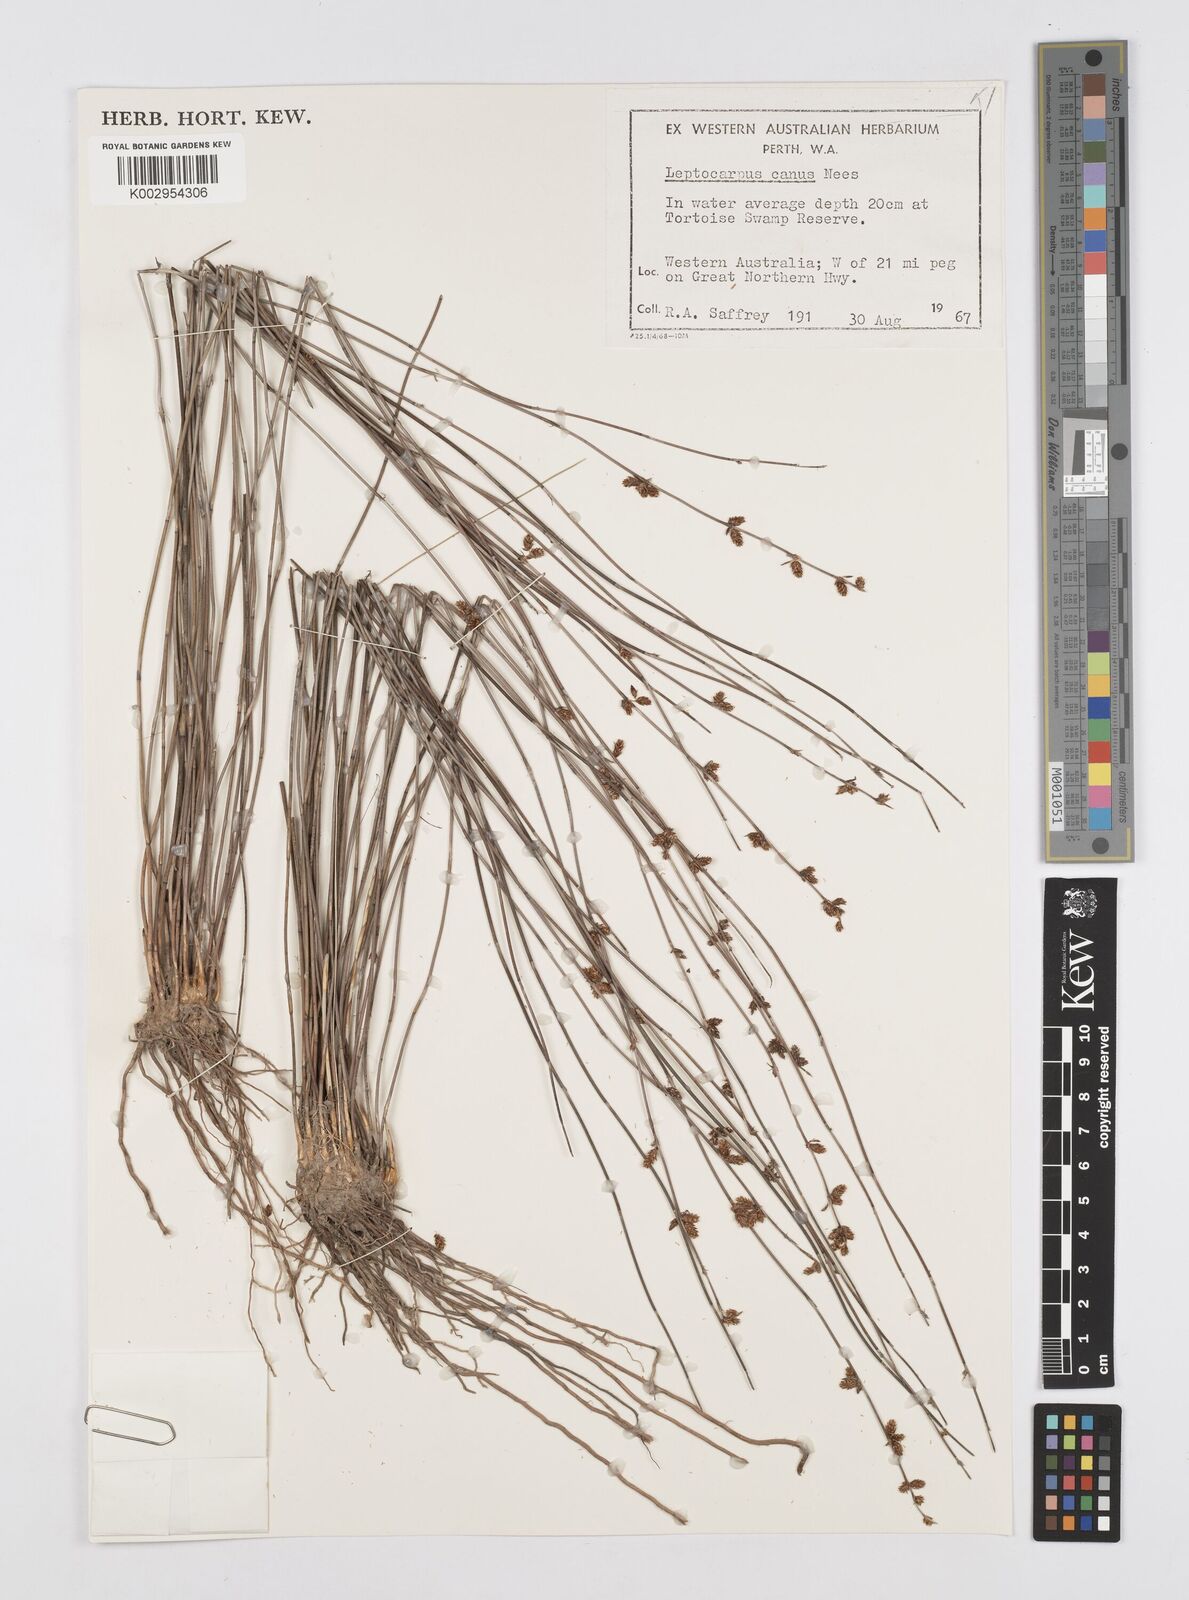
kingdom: Plantae
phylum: Tracheophyta
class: Liliopsida
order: Poales
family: Restionaceae
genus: Leptocarpus
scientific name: Leptocarpus canus
